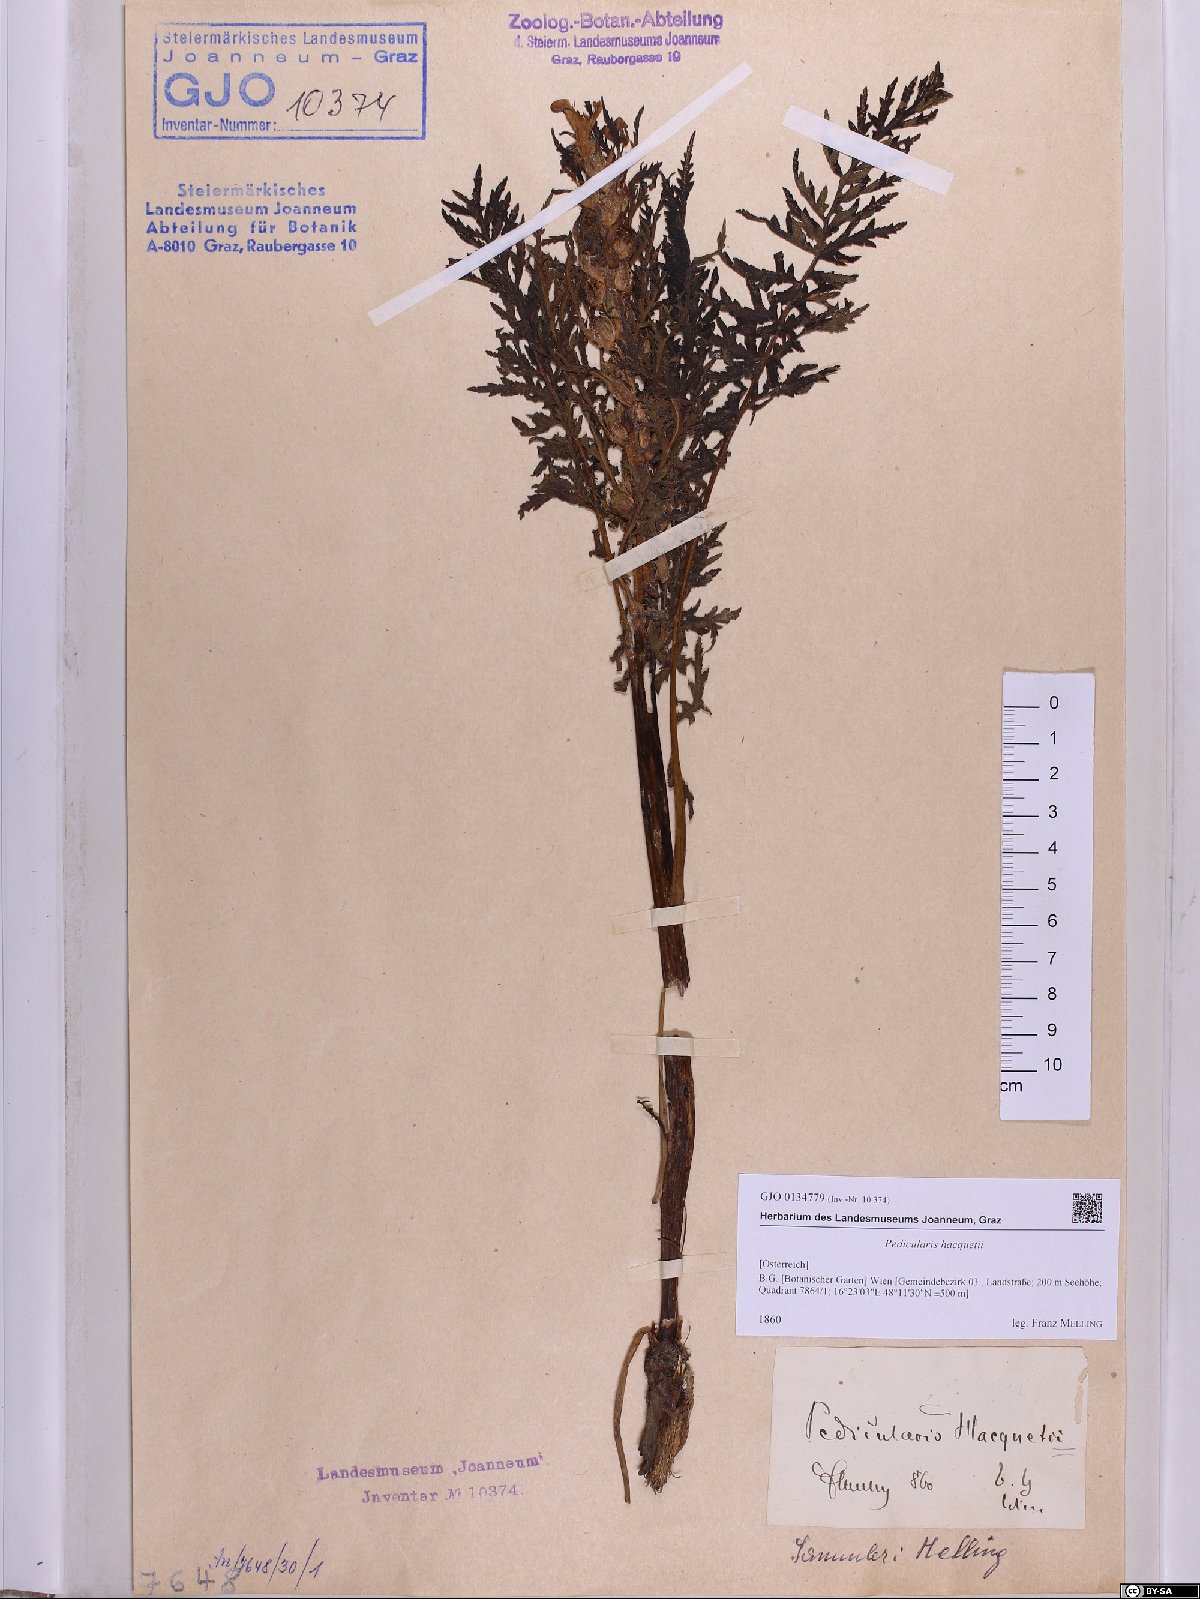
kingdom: Plantae
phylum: Tracheophyta
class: Magnoliopsida
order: Lamiales
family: Orobanchaceae
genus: Pedicularis
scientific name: Pedicularis hacquetii
